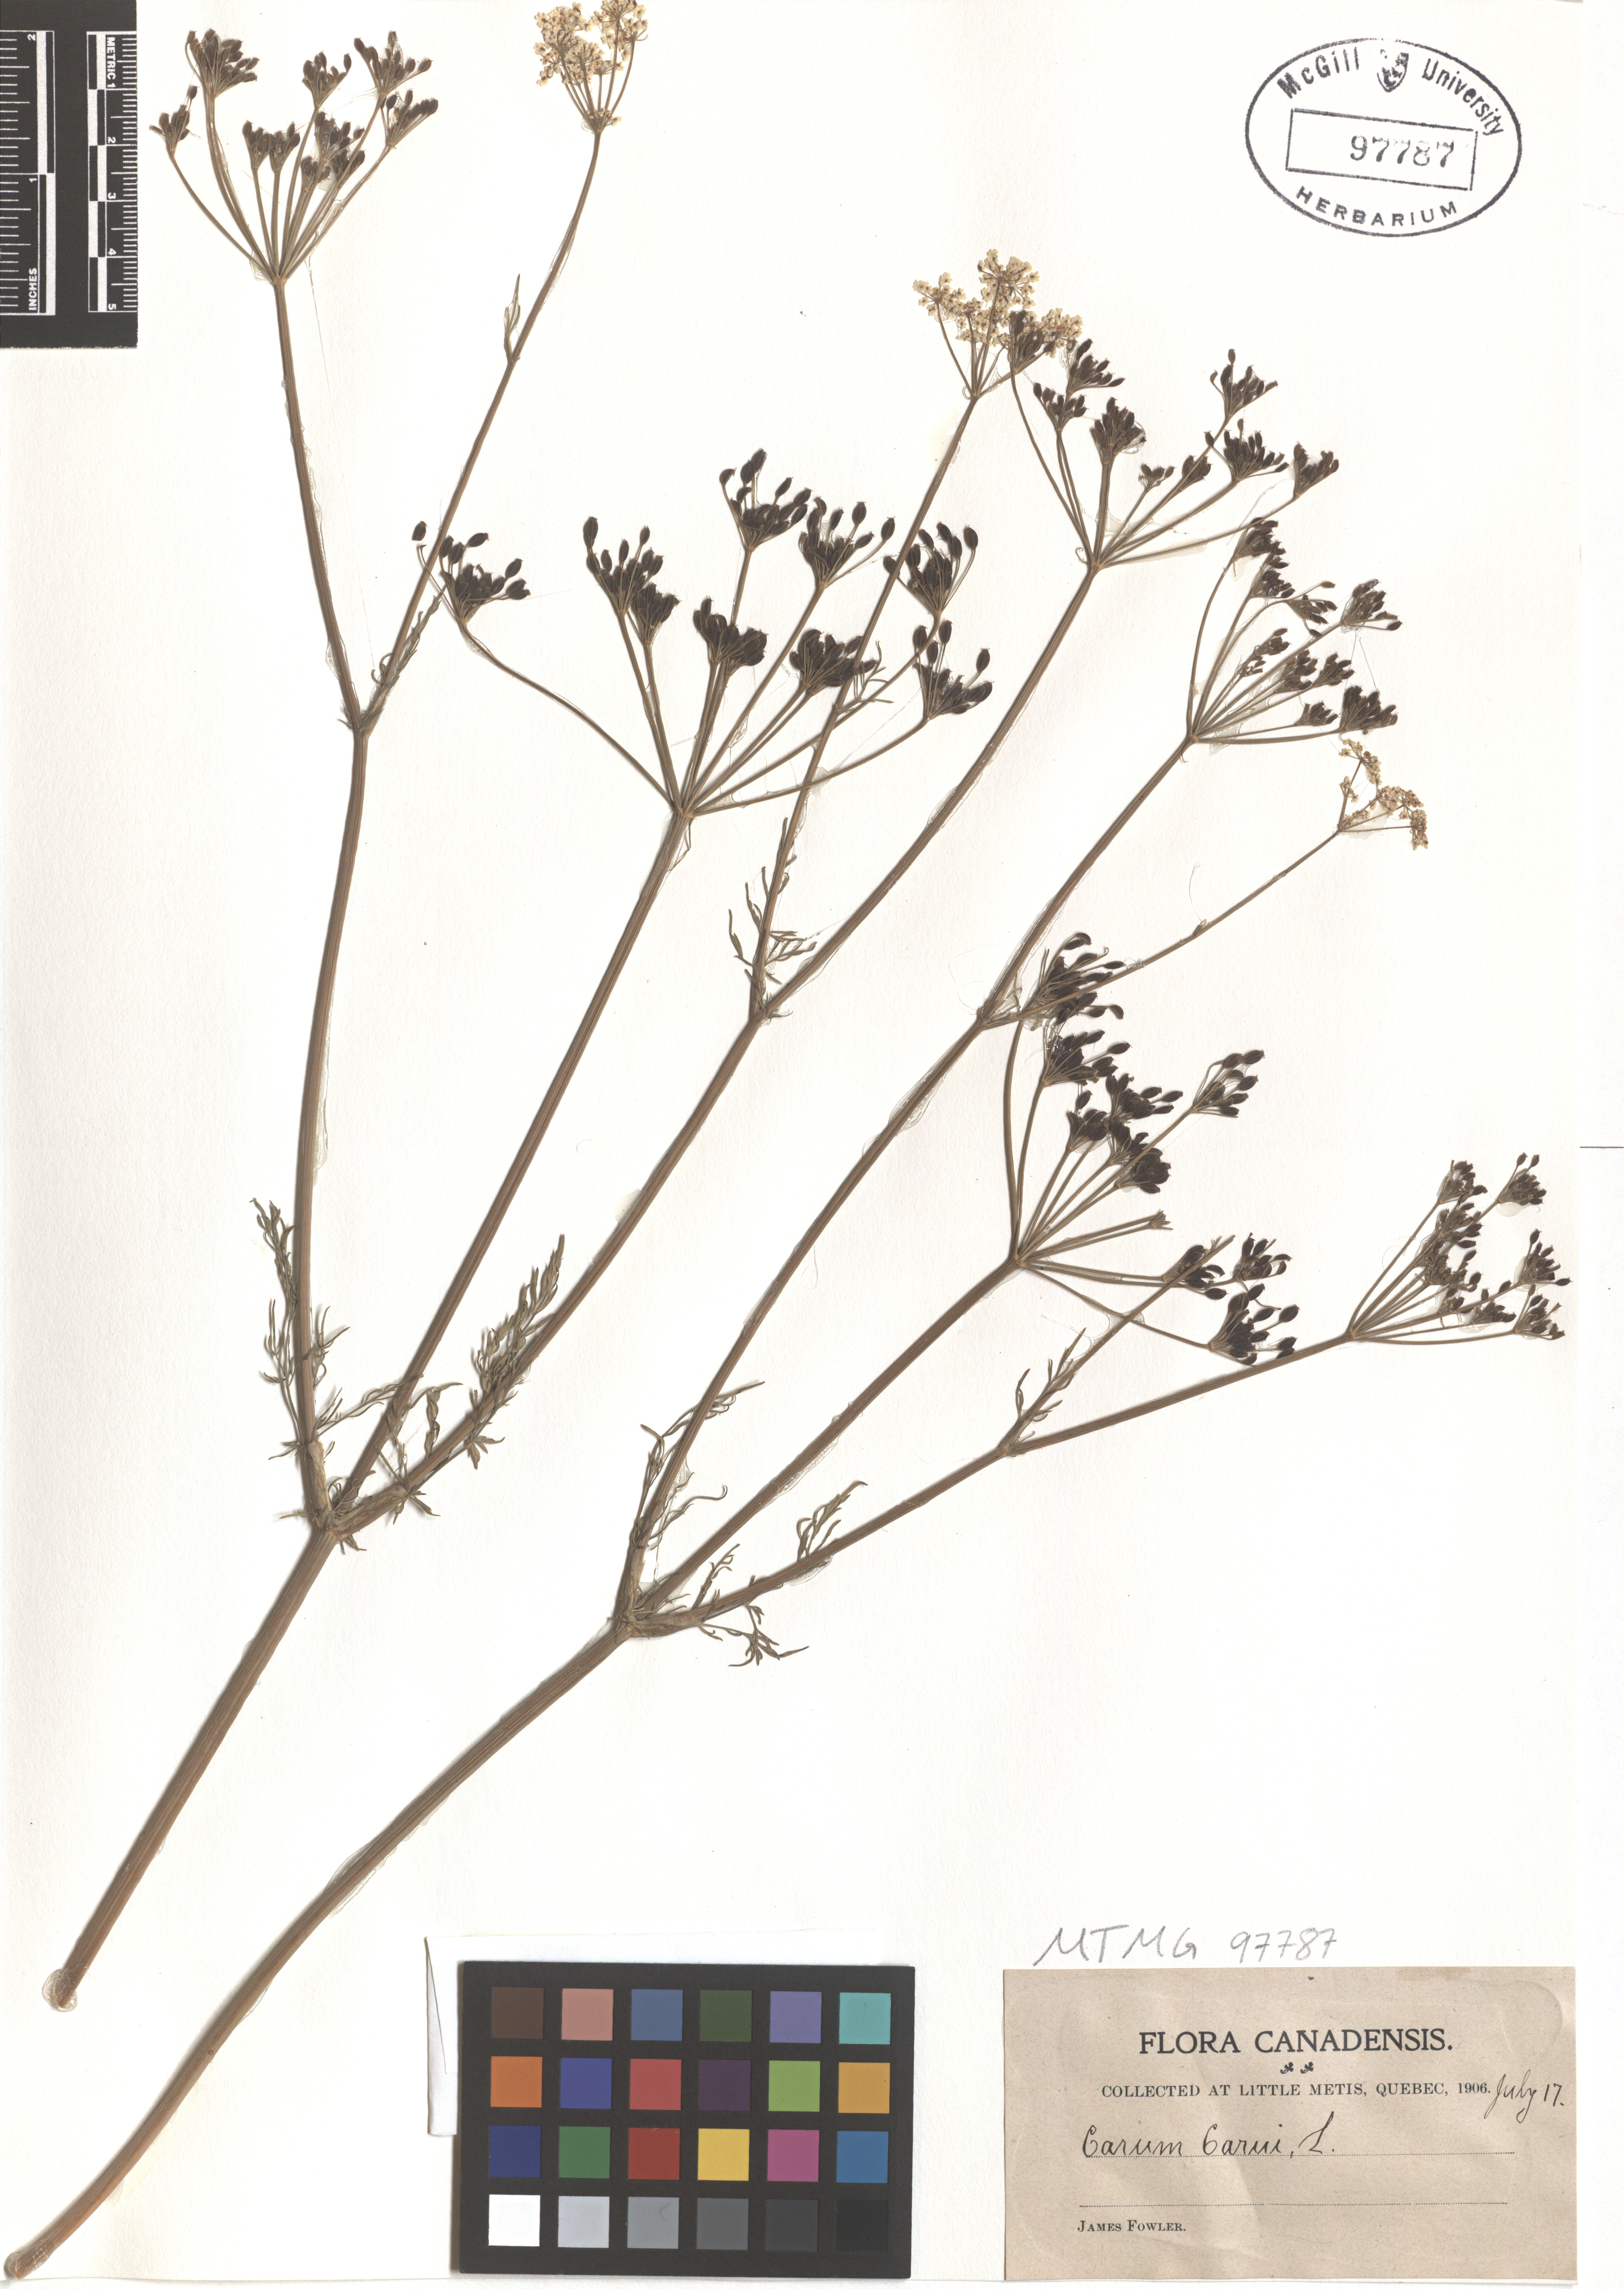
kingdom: Plantae
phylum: Tracheophyta
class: Magnoliopsida
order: Apiales
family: Apiaceae
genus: Carum
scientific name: Carum carvi
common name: Caraway
